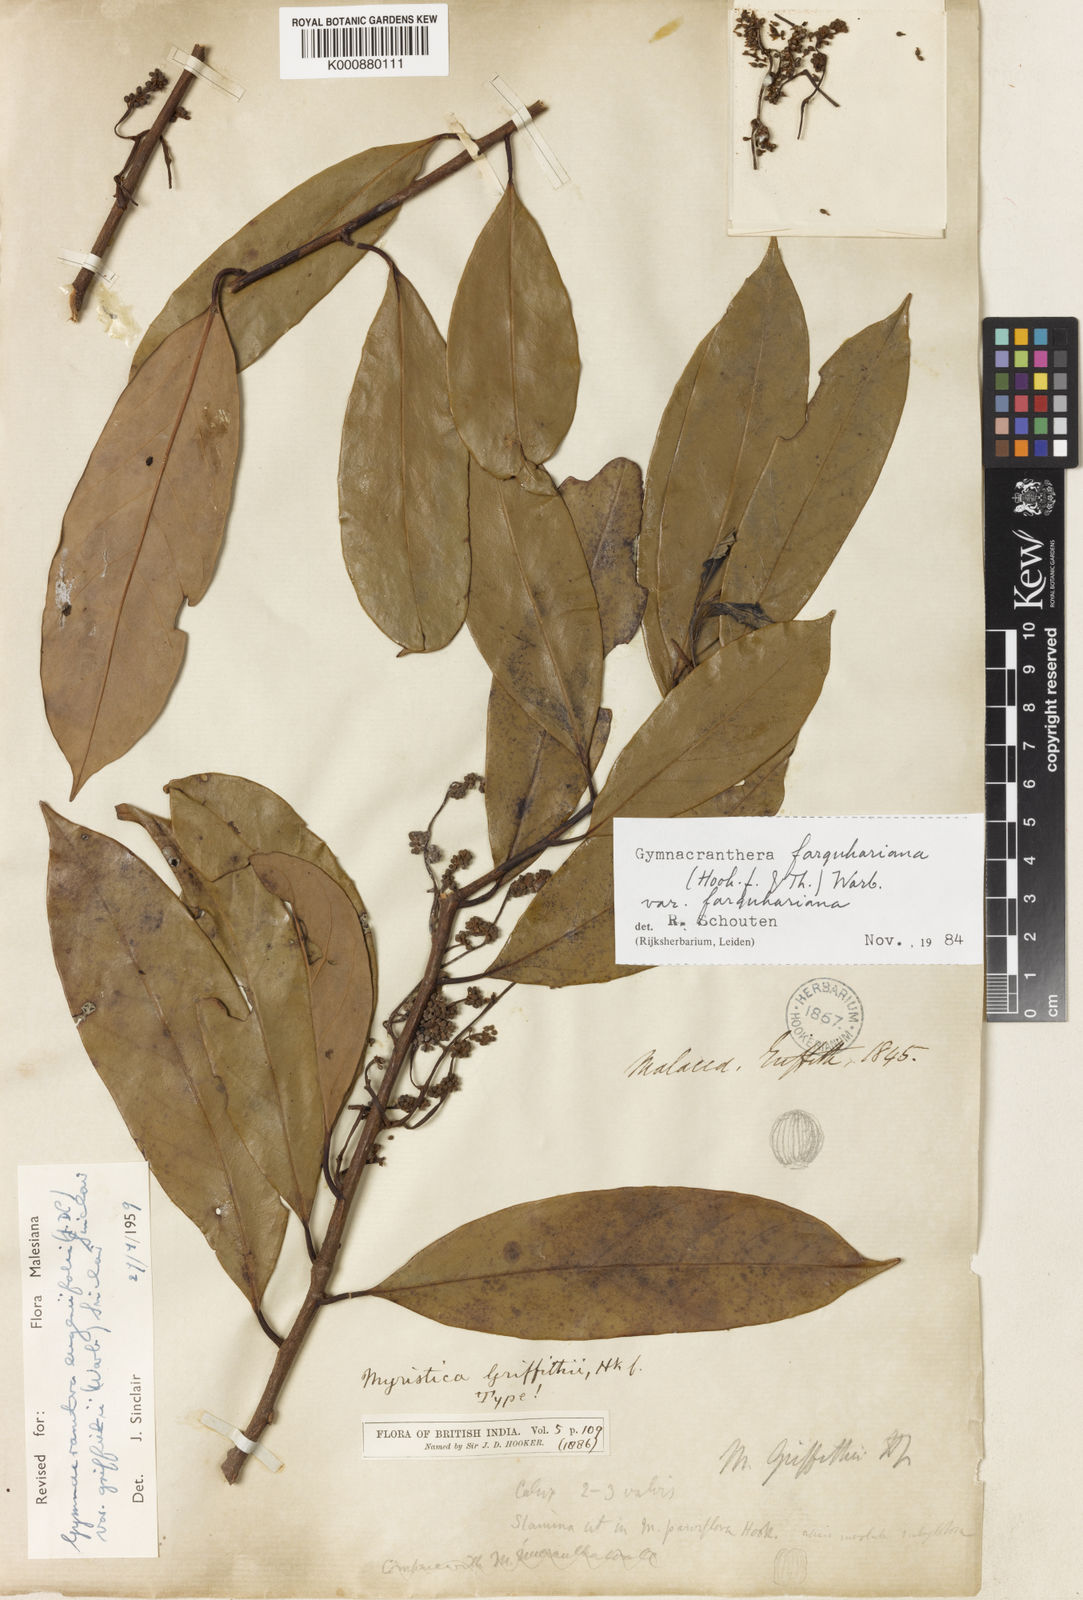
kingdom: Plantae
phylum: Tracheophyta
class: Magnoliopsida
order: Magnoliales
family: Myristicaceae
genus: Gymnacranthera
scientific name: Gymnacranthera farquhariana
